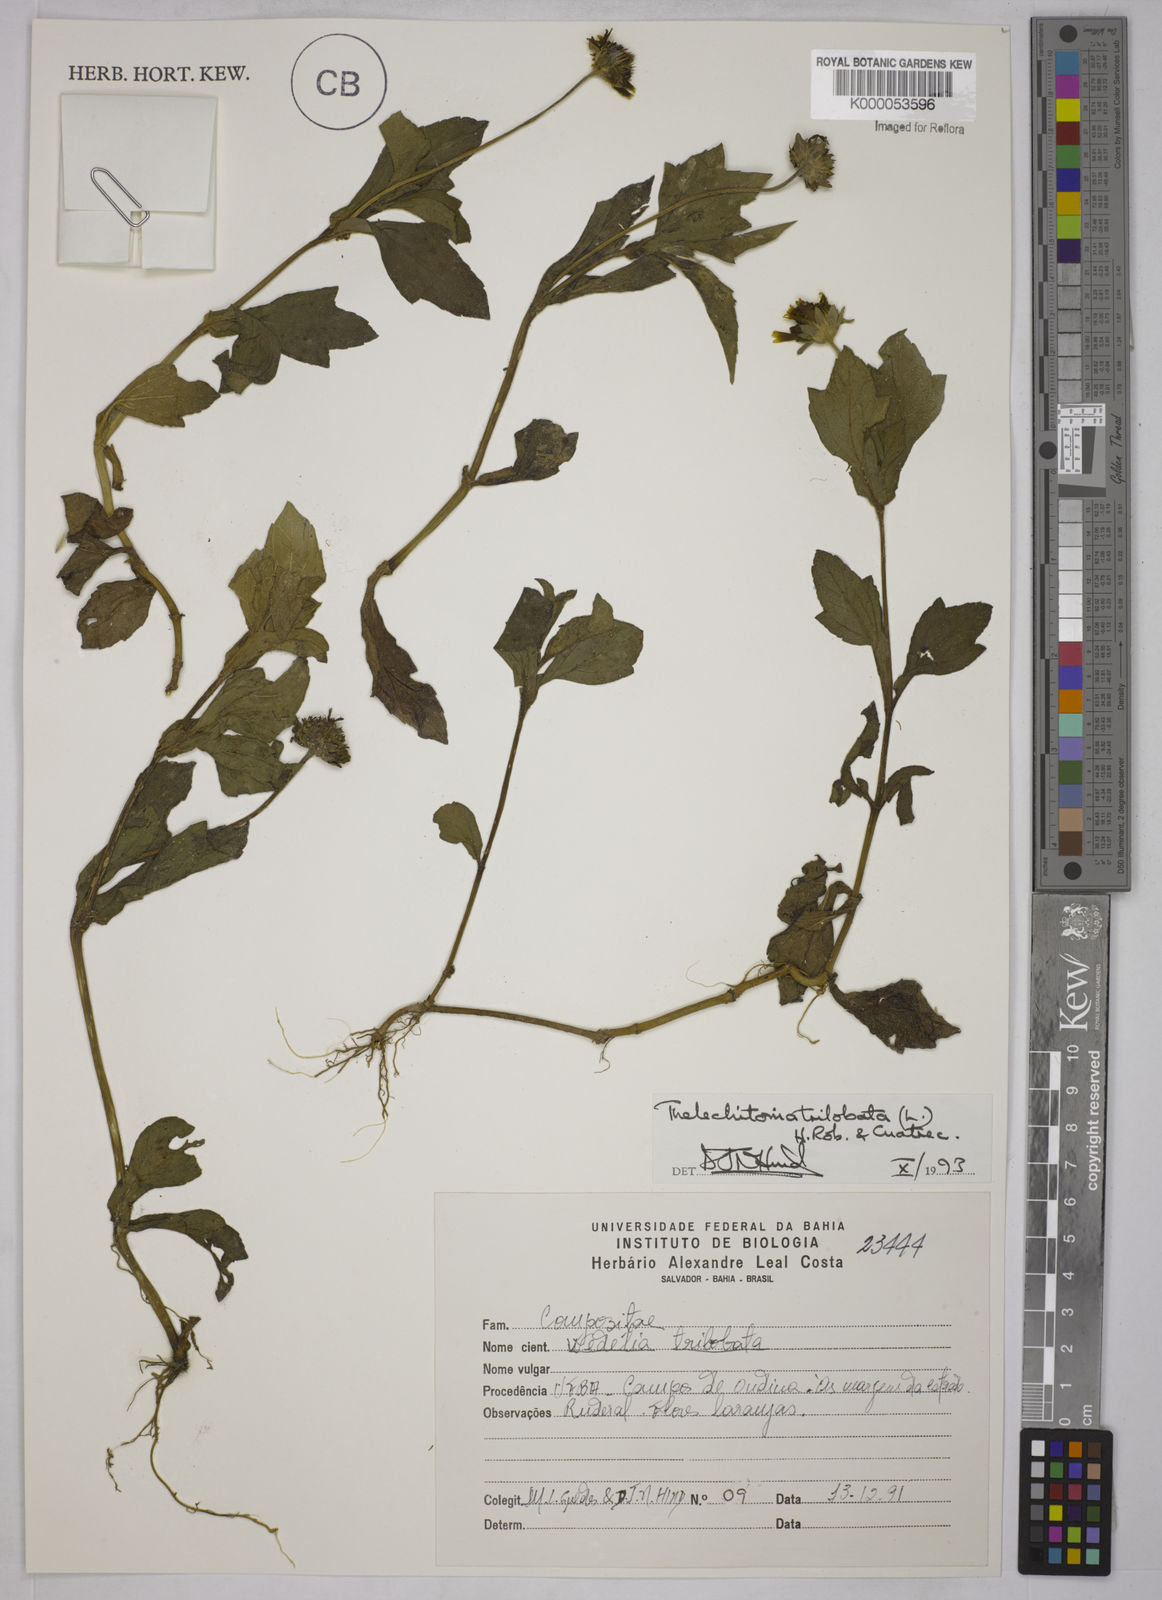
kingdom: Plantae
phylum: Tracheophyta
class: Magnoliopsida
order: Asterales
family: Asteraceae
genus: Sphagneticola
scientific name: Sphagneticola trilobata
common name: Bay biscayne creeping-oxeye
